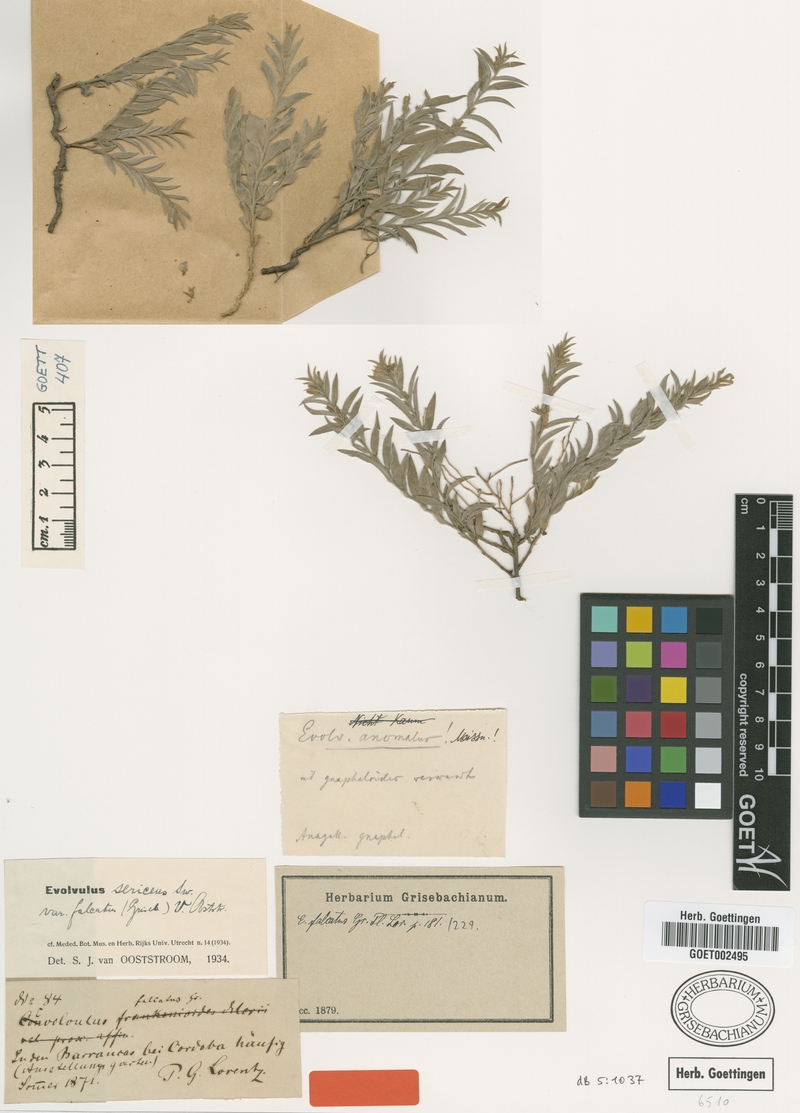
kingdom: Plantae
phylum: Tracheophyta
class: Magnoliopsida
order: Solanales
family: Convolvulaceae
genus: Evolvulus
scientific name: Evolvulus sericeus
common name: Blue dots
